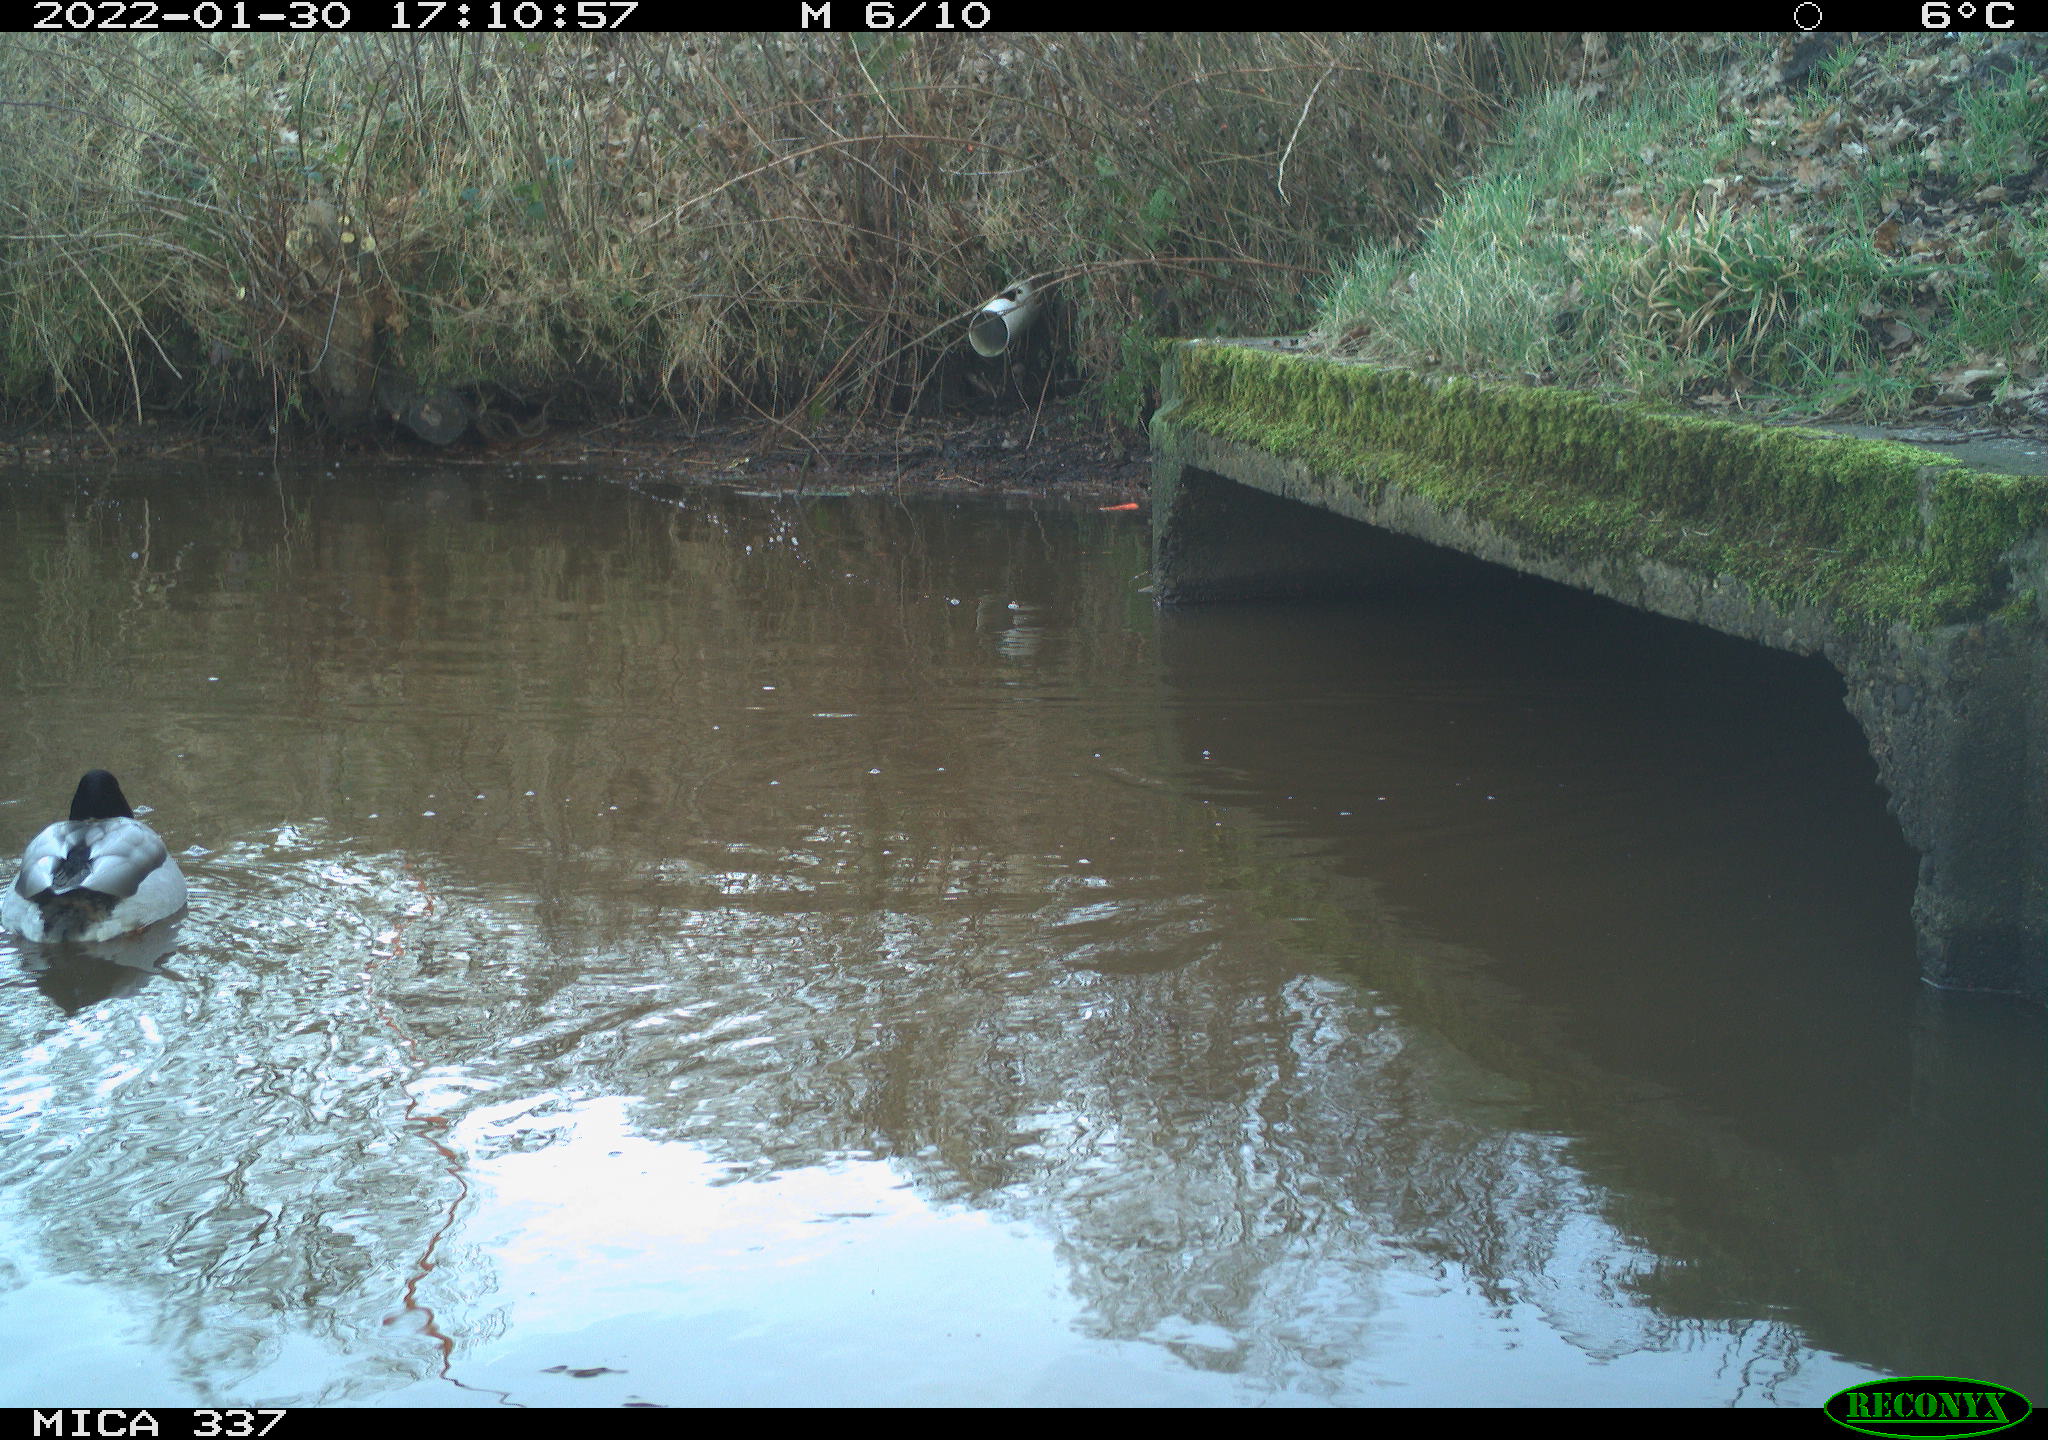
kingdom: Animalia
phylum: Chordata
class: Aves
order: Anseriformes
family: Anatidae
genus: Anas
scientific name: Anas platyrhynchos
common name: Mallard
